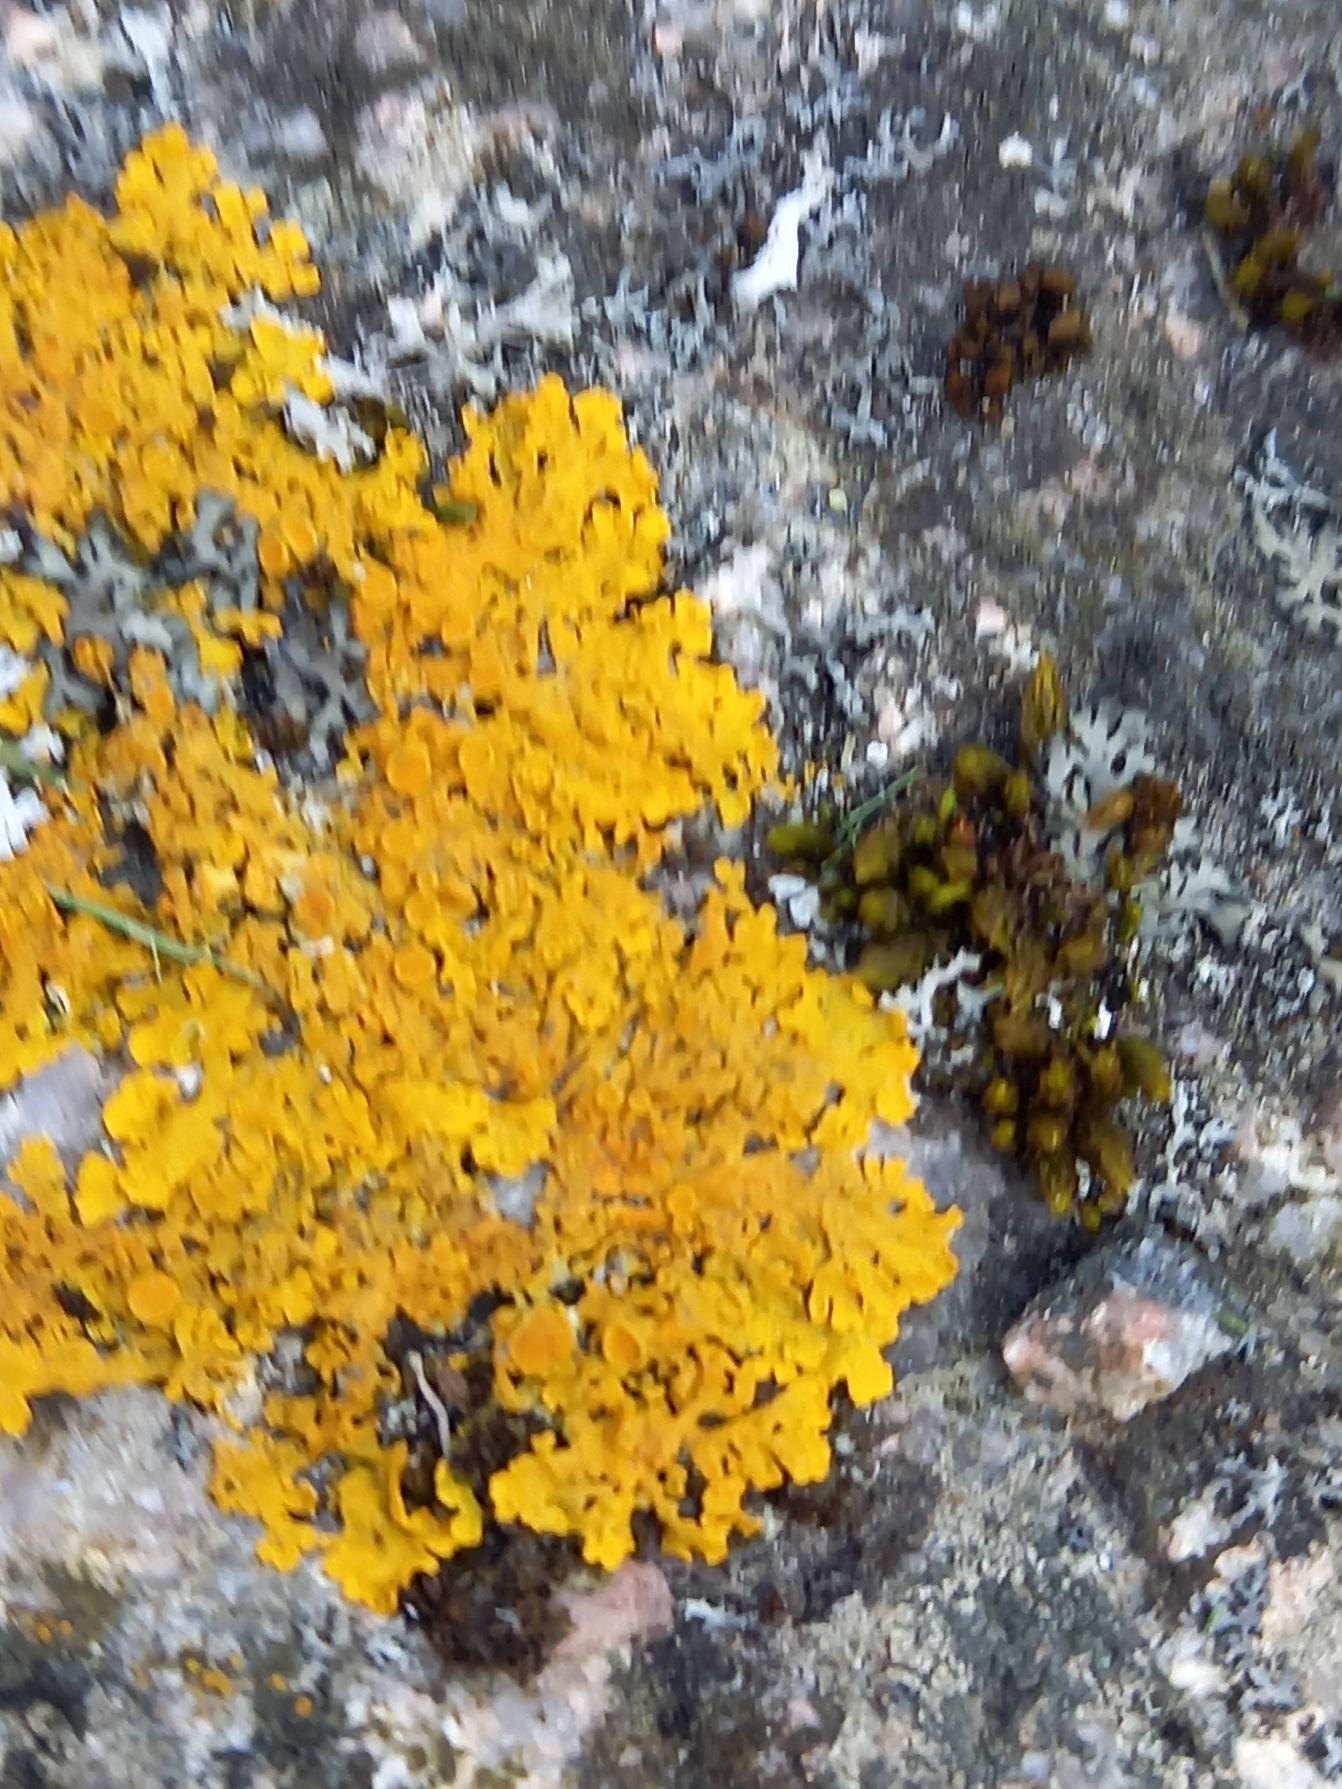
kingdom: Fungi
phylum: Ascomycota
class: Lecanoromycetes
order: Teloschistales
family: Teloschistaceae
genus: Xanthoria
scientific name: Xanthoria parietina
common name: Almindelig væggelav
